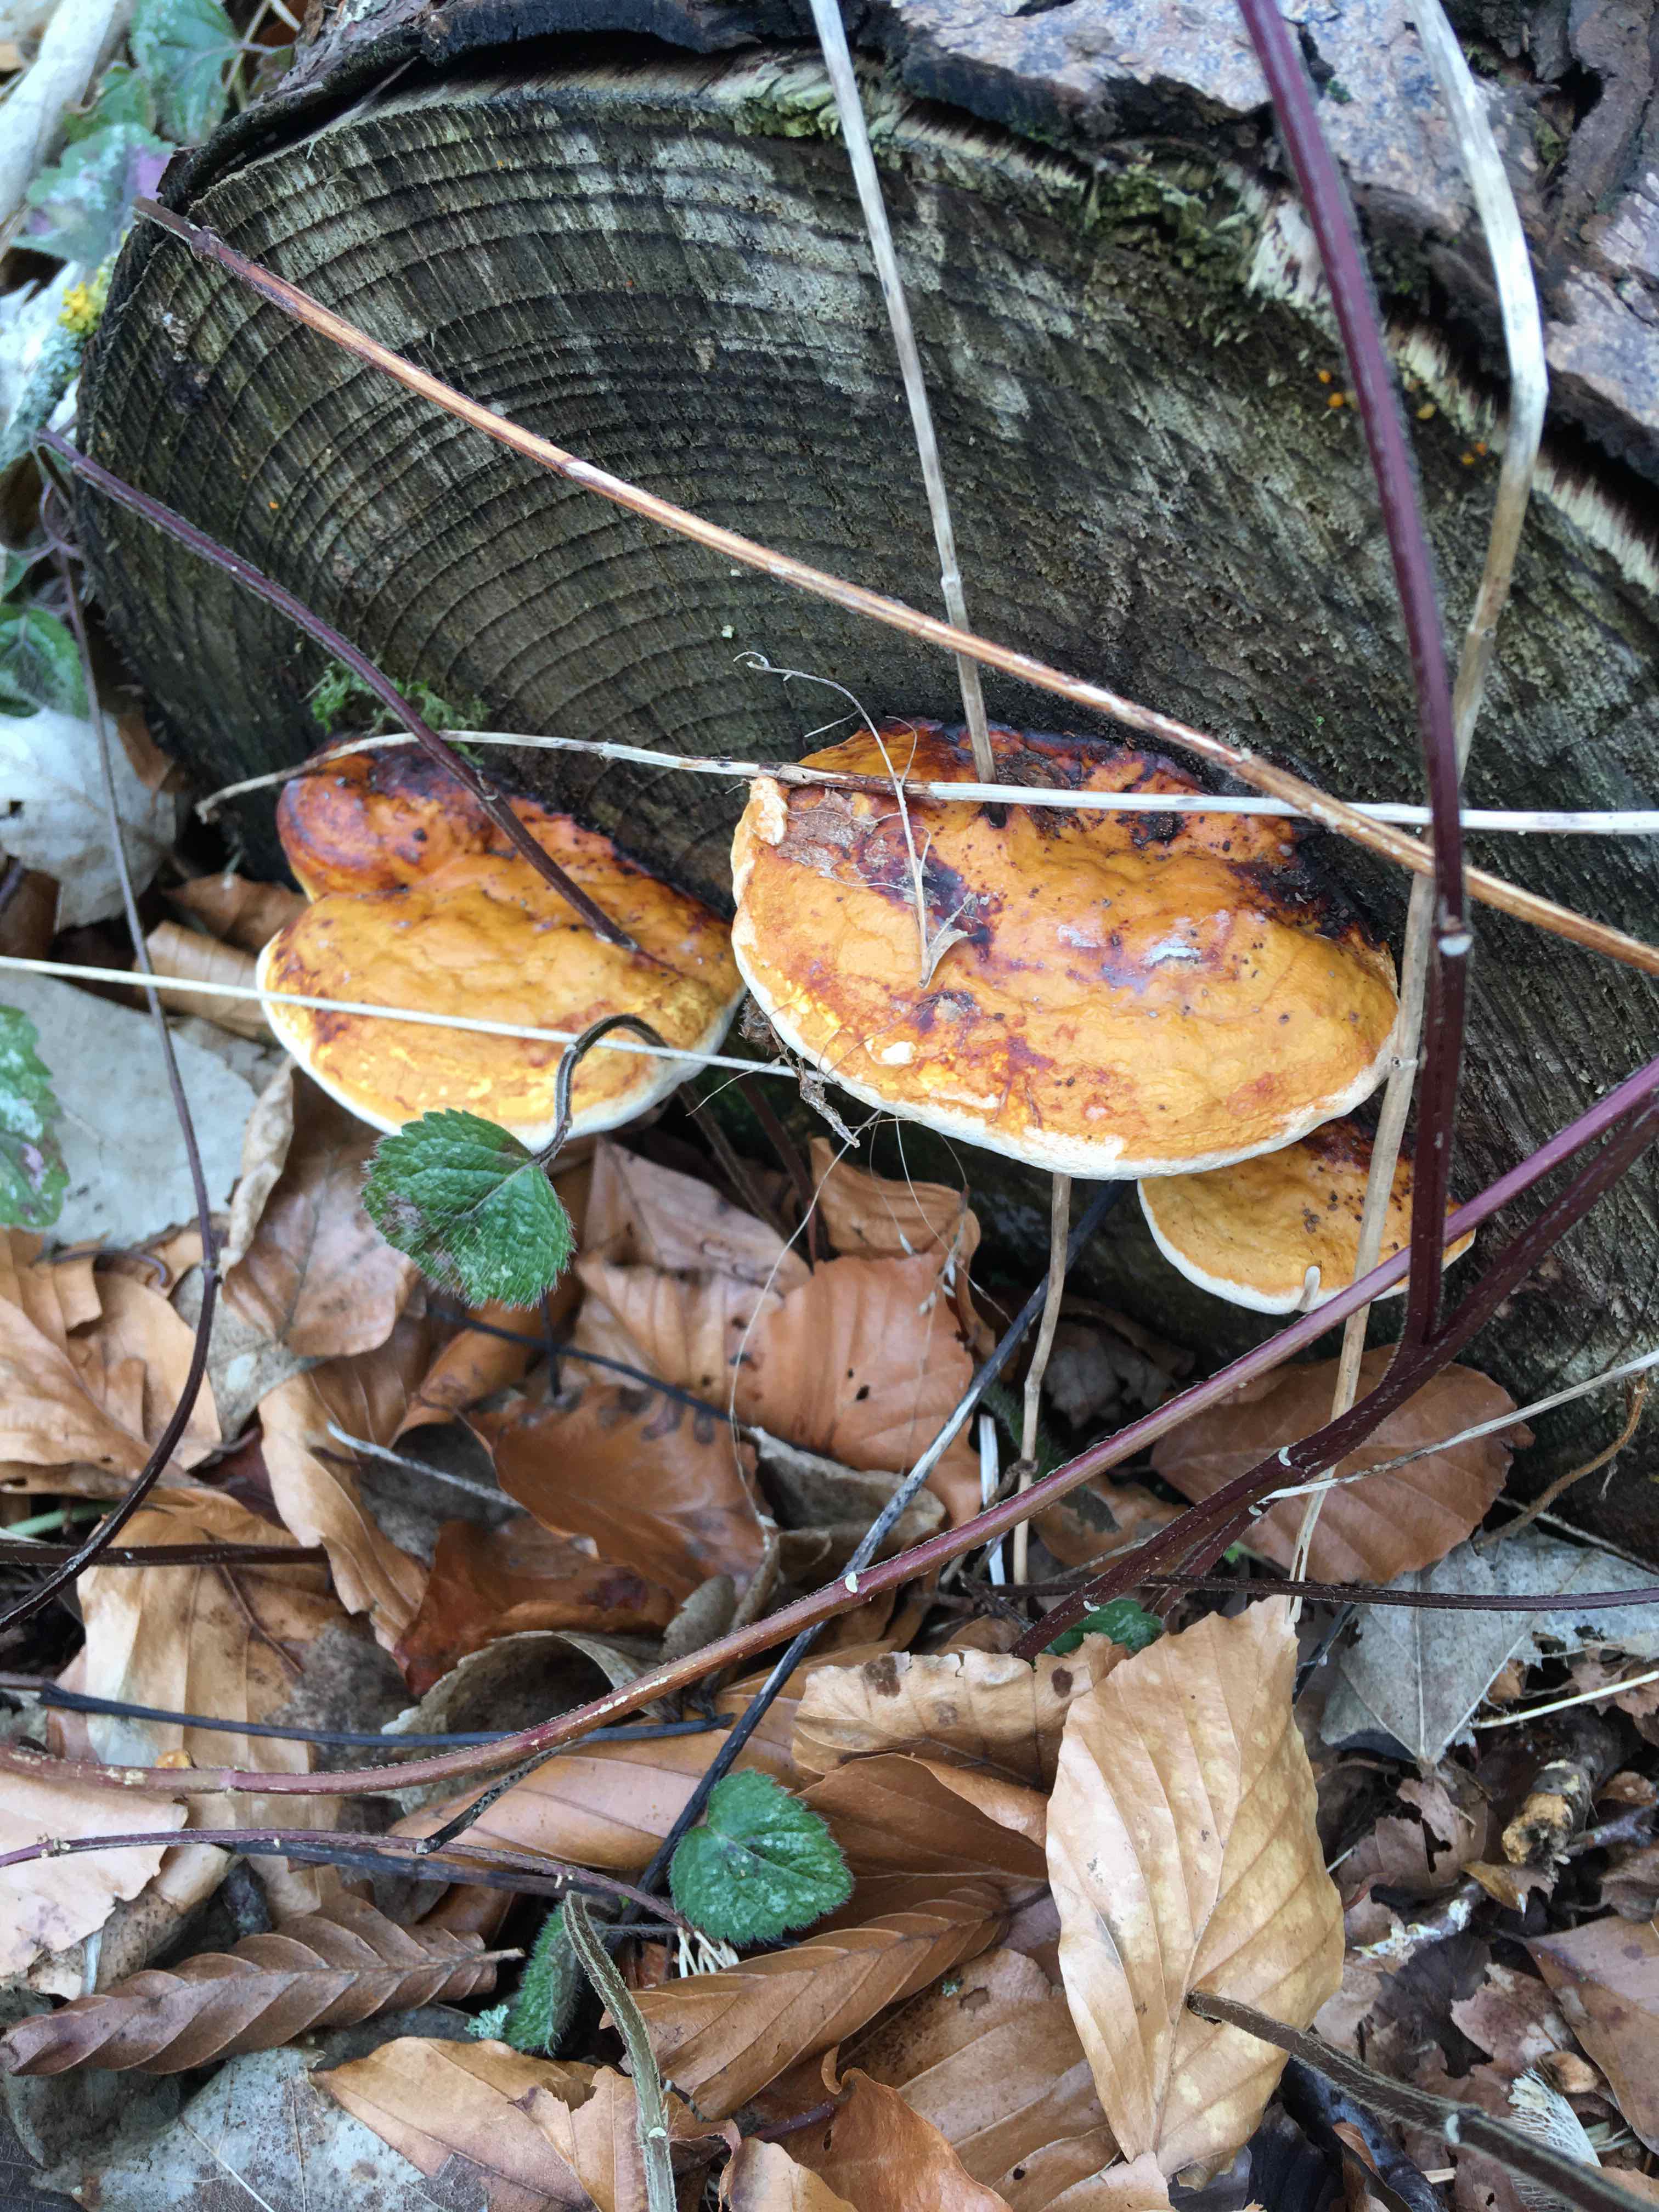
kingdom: Fungi
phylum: Basidiomycota
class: Agaricomycetes
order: Polyporales
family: Fomitopsidaceae
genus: Fomitopsis
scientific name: Fomitopsis pinicola
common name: randbæltet hovporesvamp
